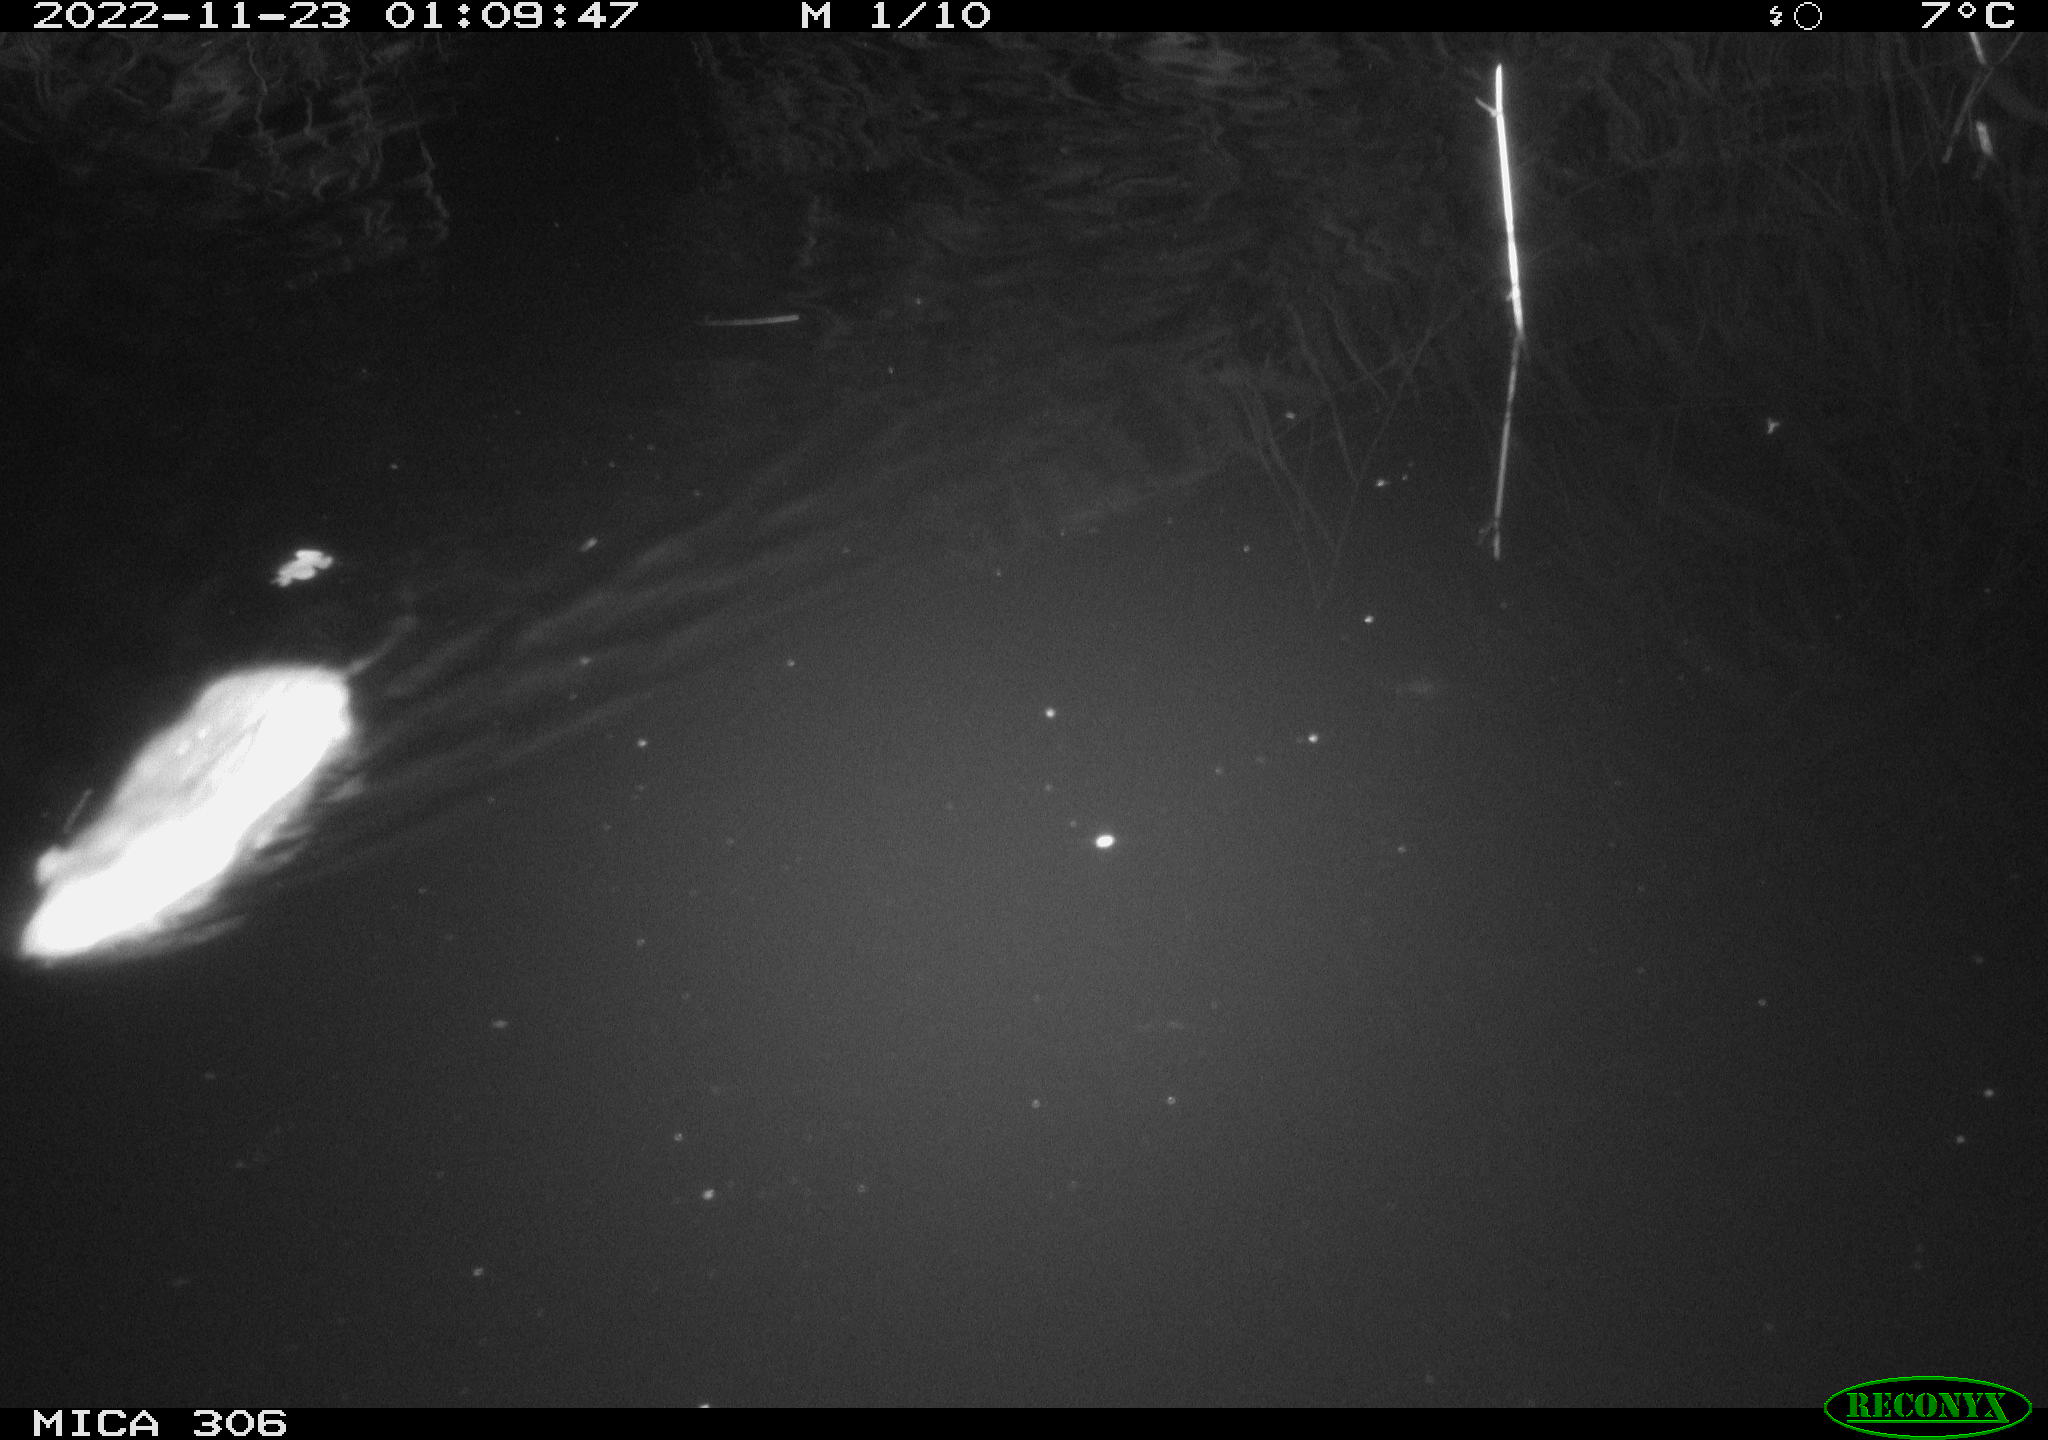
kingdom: Animalia
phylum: Chordata
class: Mammalia
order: Rodentia
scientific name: Rodentia
